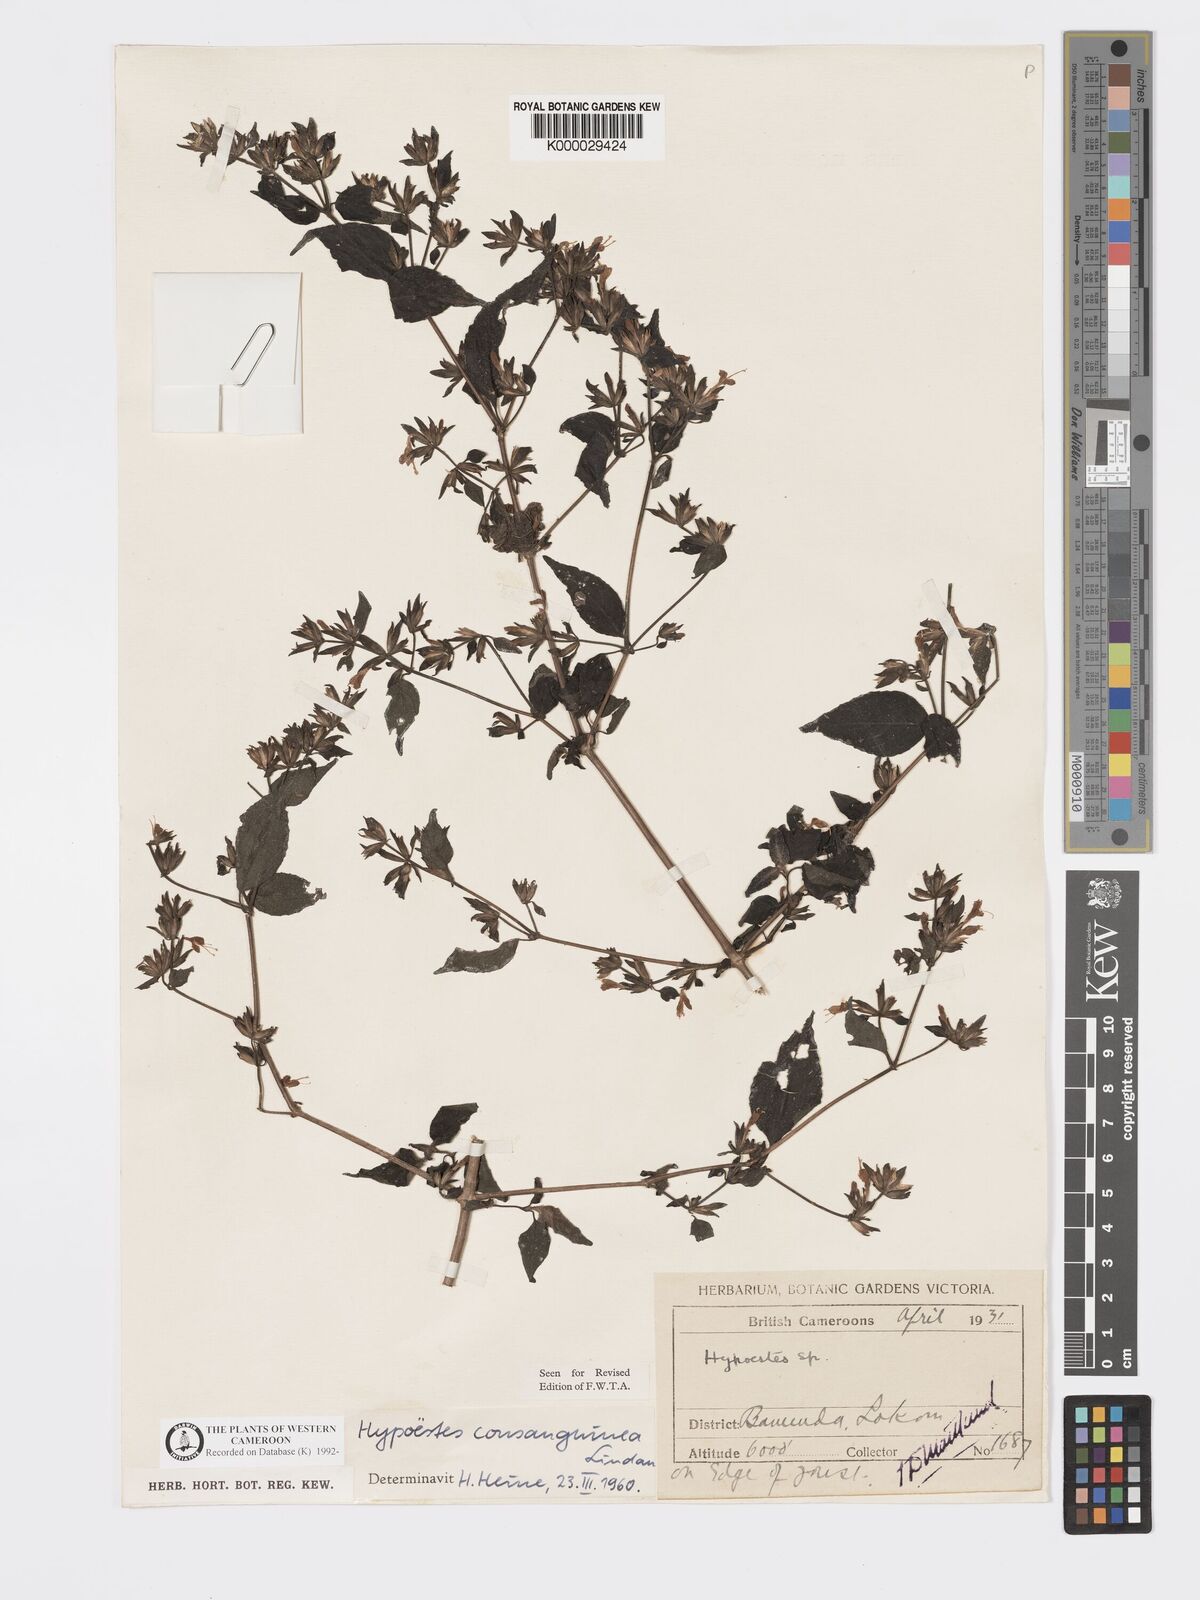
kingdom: Plantae
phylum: Tracheophyta
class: Magnoliopsida
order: Lamiales
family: Acanthaceae
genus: Hypoestes
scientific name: Hypoestes rosea
